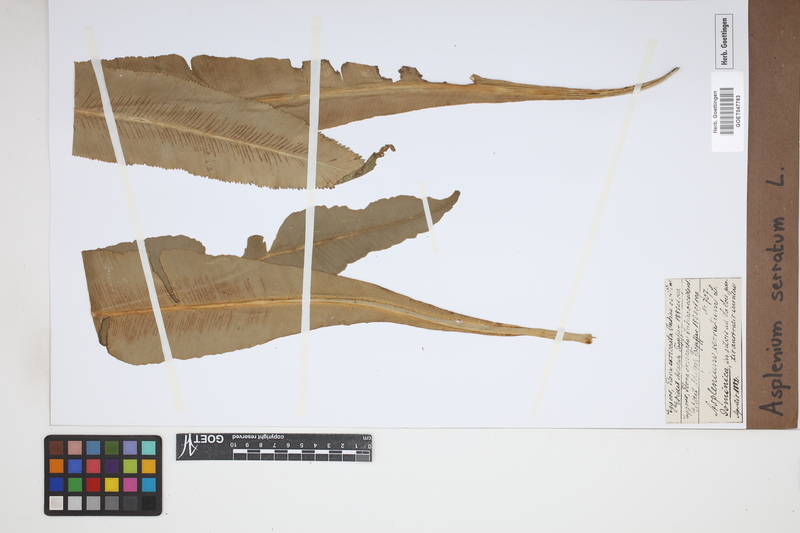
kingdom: Plantae
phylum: Tracheophyta
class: Polypodiopsida
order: Polypodiales
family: Aspleniaceae
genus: Asplenium
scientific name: Asplenium serratum
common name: Wild birdnest fern
